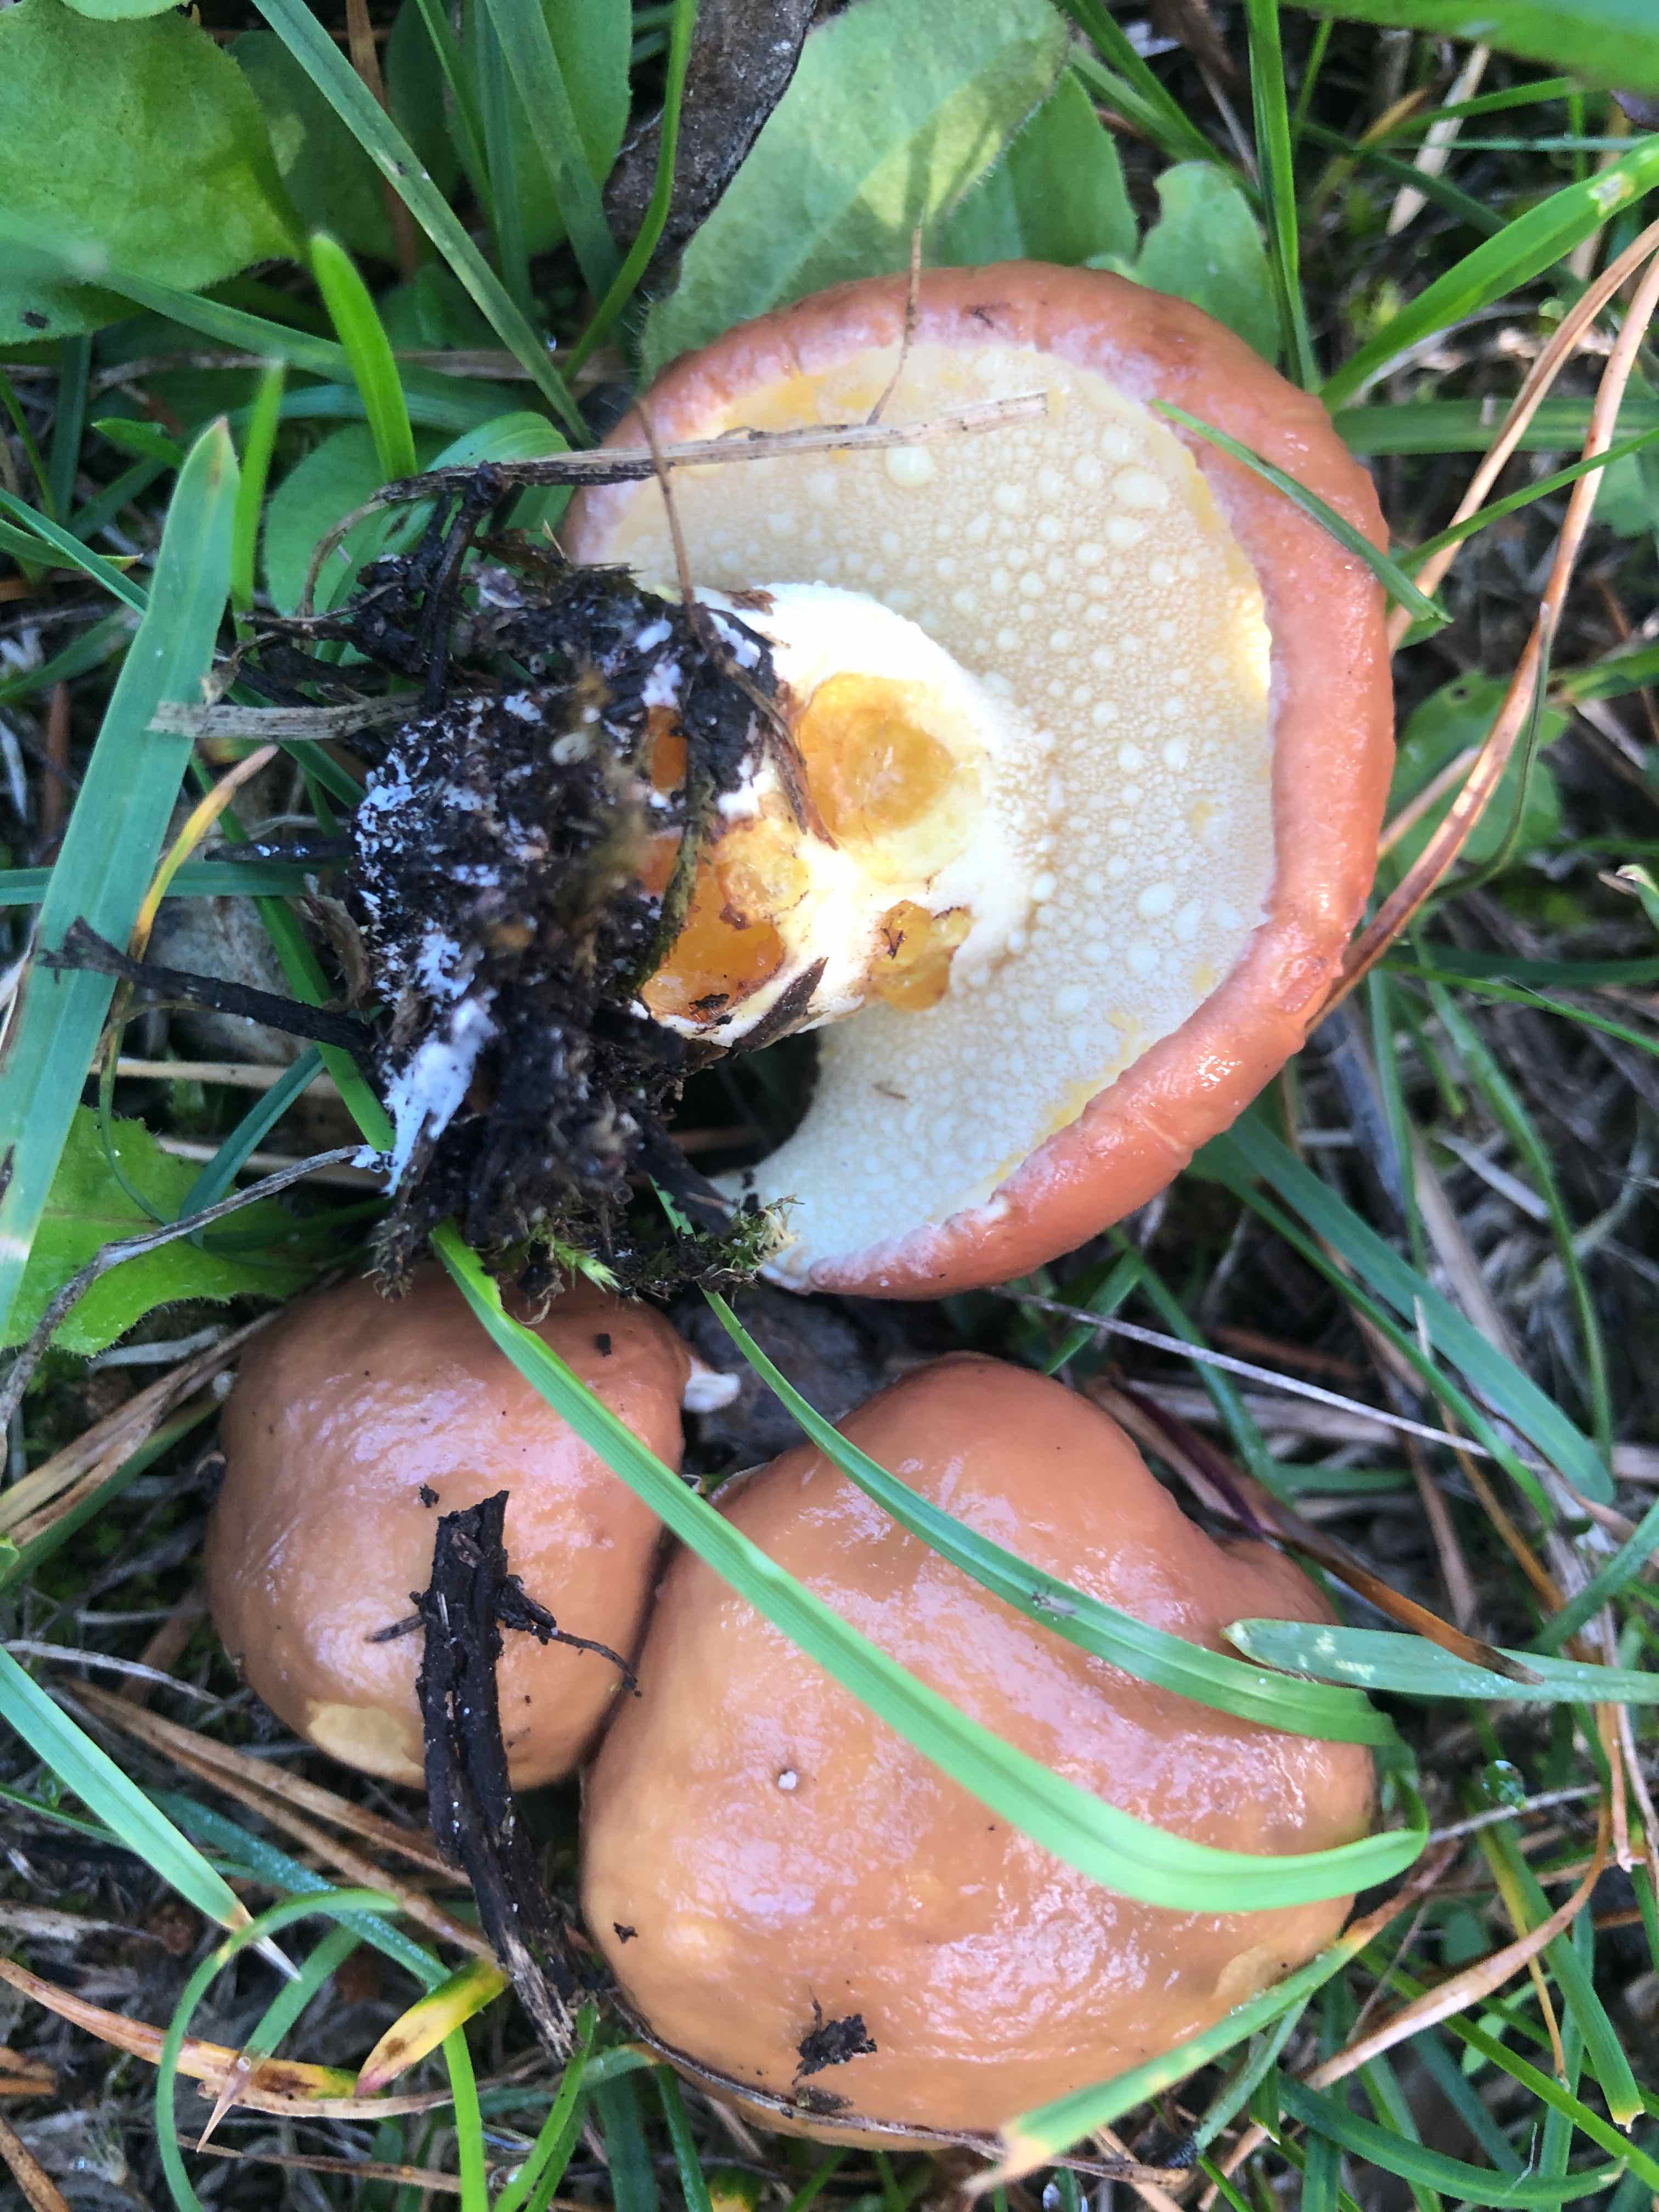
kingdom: Fungi
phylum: Basidiomycota
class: Agaricomycetes
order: Boletales
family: Suillaceae
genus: Suillus
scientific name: Suillus granulatus
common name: kornet slimrørhat
